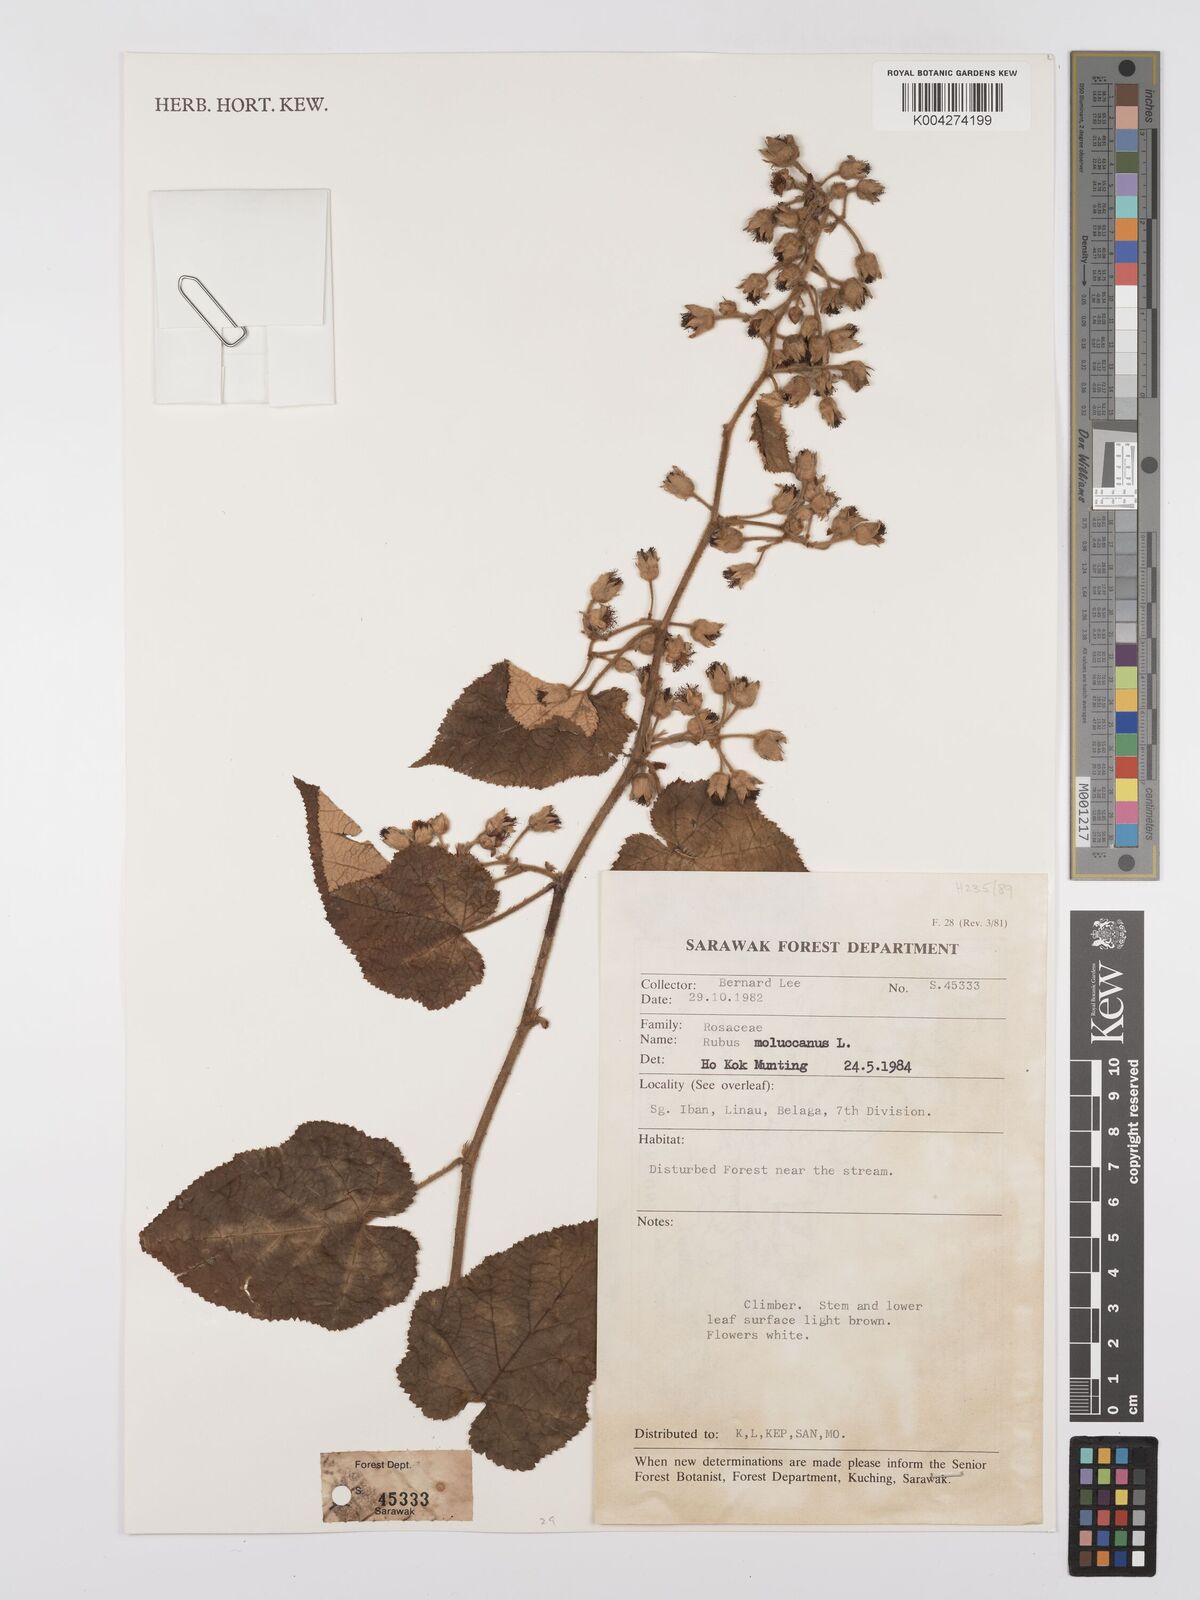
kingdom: Plantae
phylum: Tracheophyta
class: Magnoliopsida
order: Rosales
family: Rosaceae
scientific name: Rosaceae
